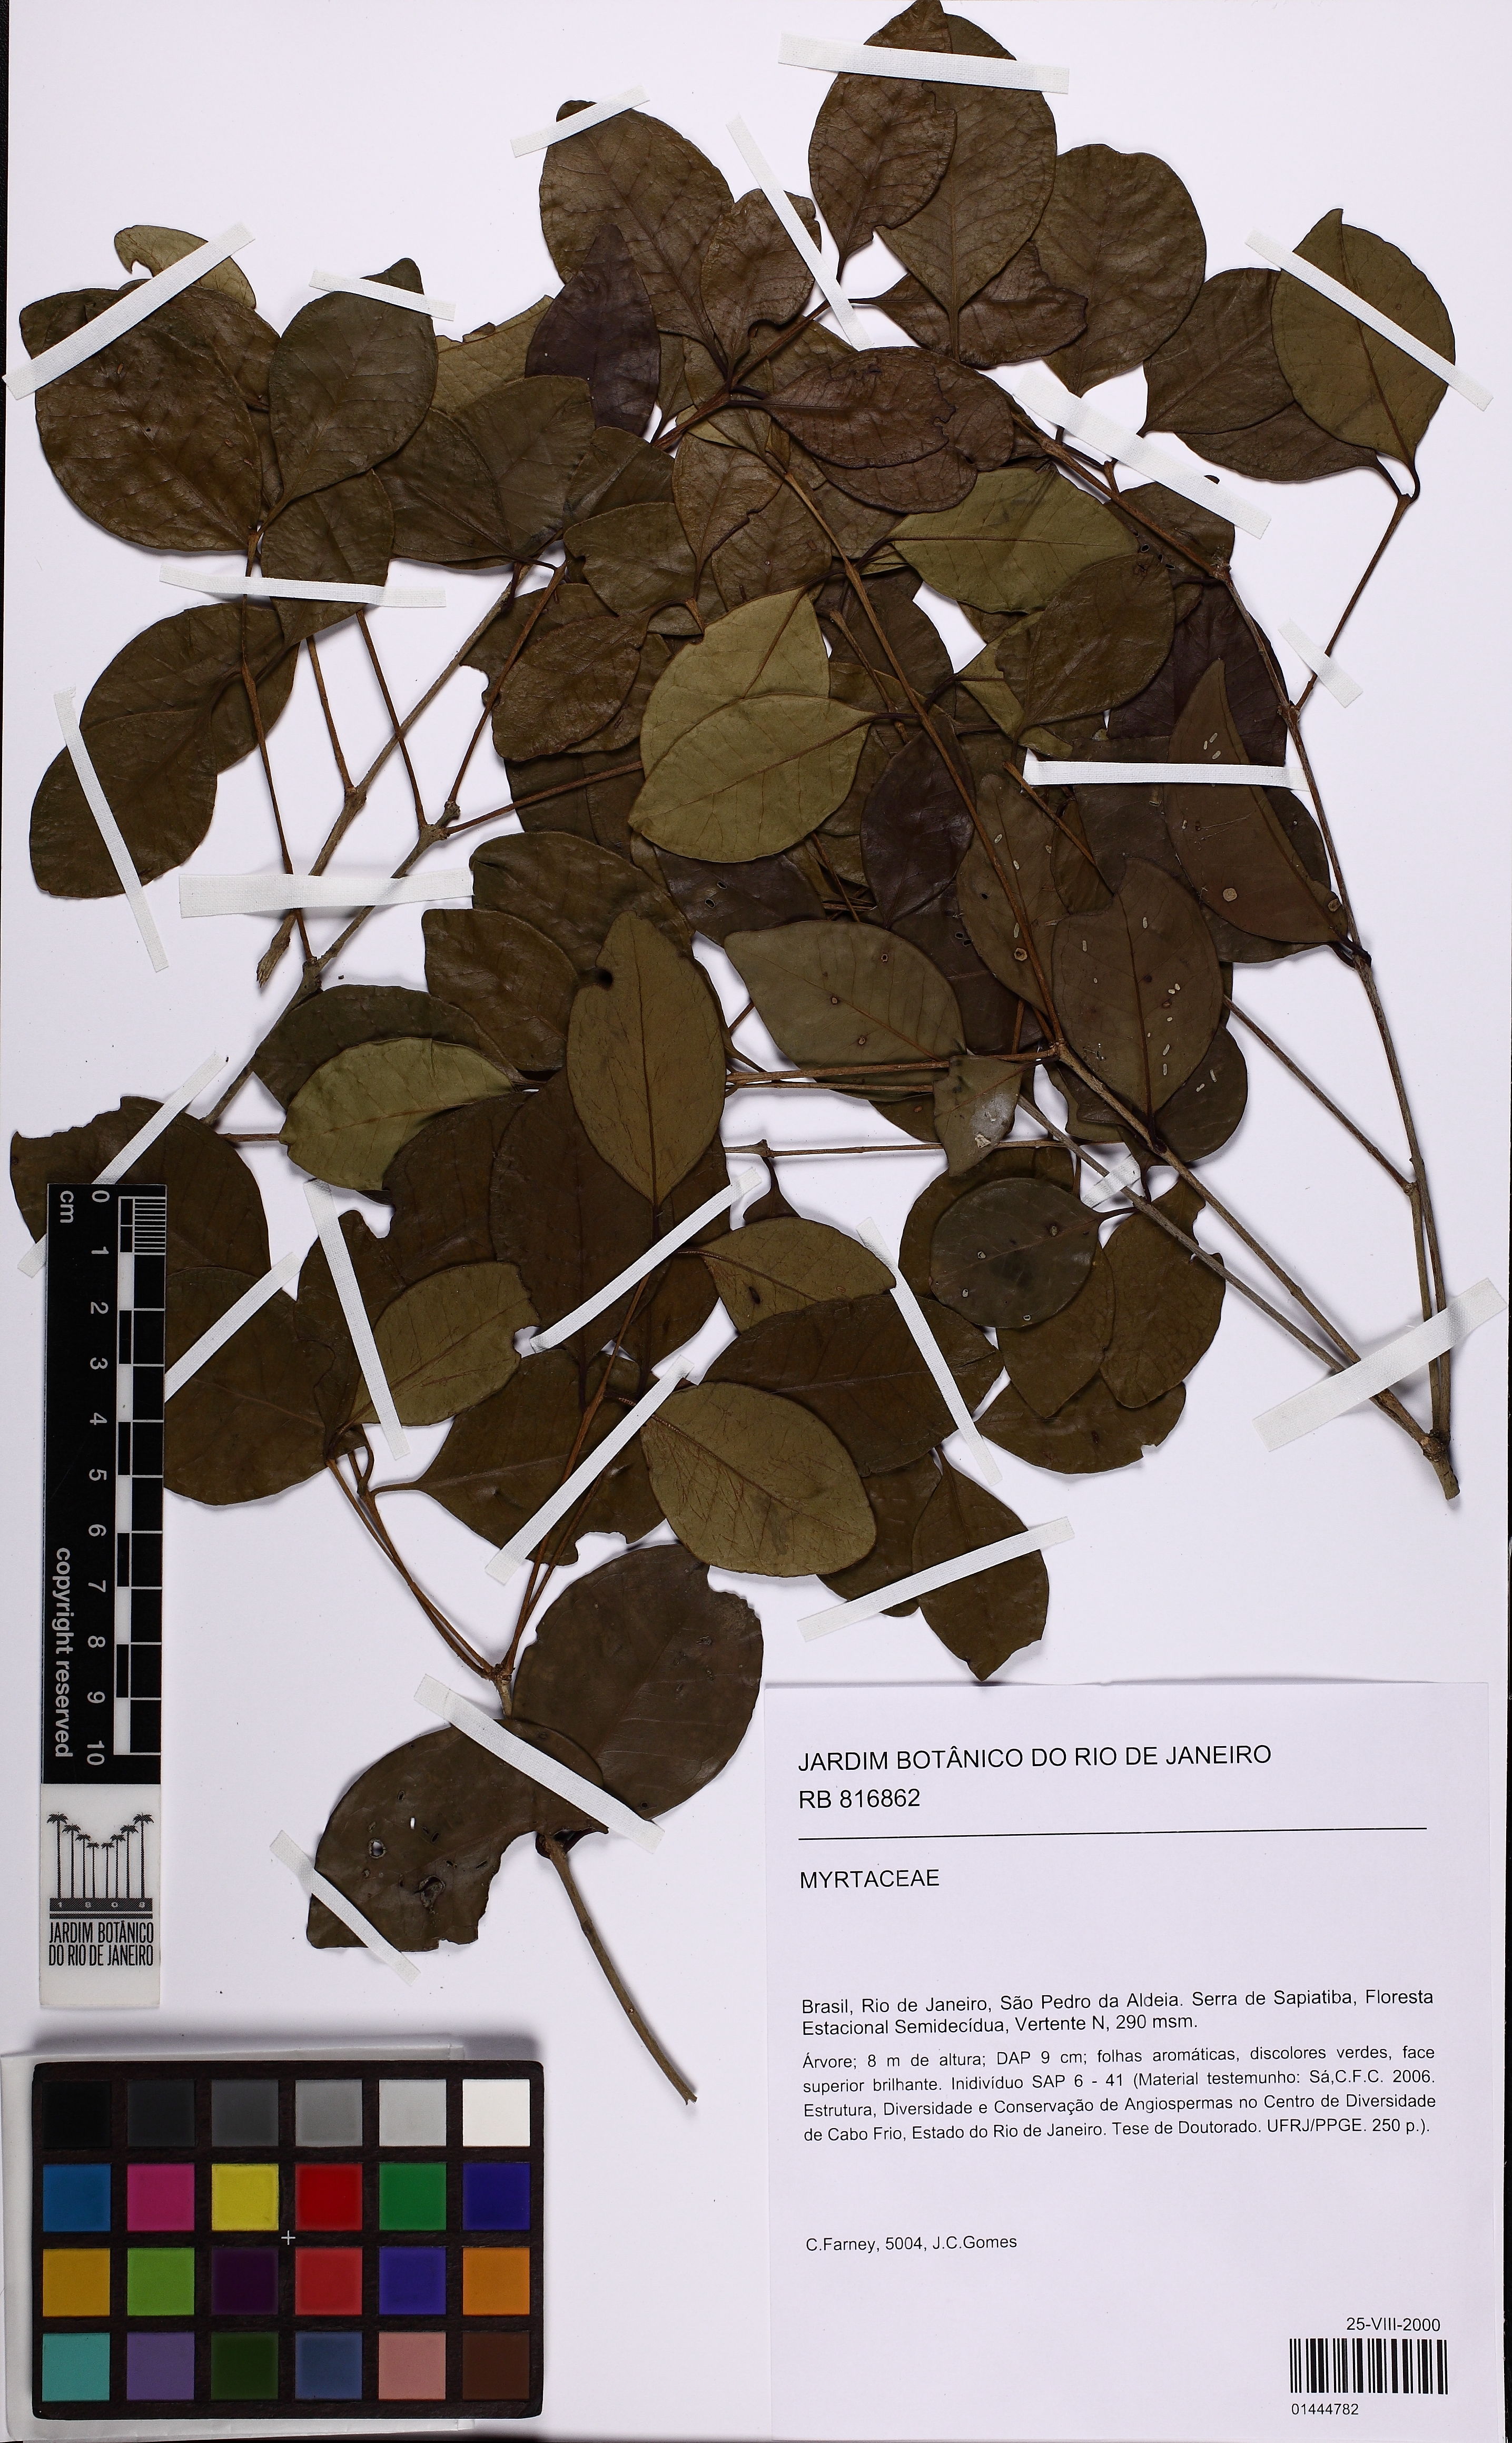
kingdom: Plantae
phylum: Tracheophyta
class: Magnoliopsida
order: Myrtales
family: Myrtaceae
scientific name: Myrtaceae
